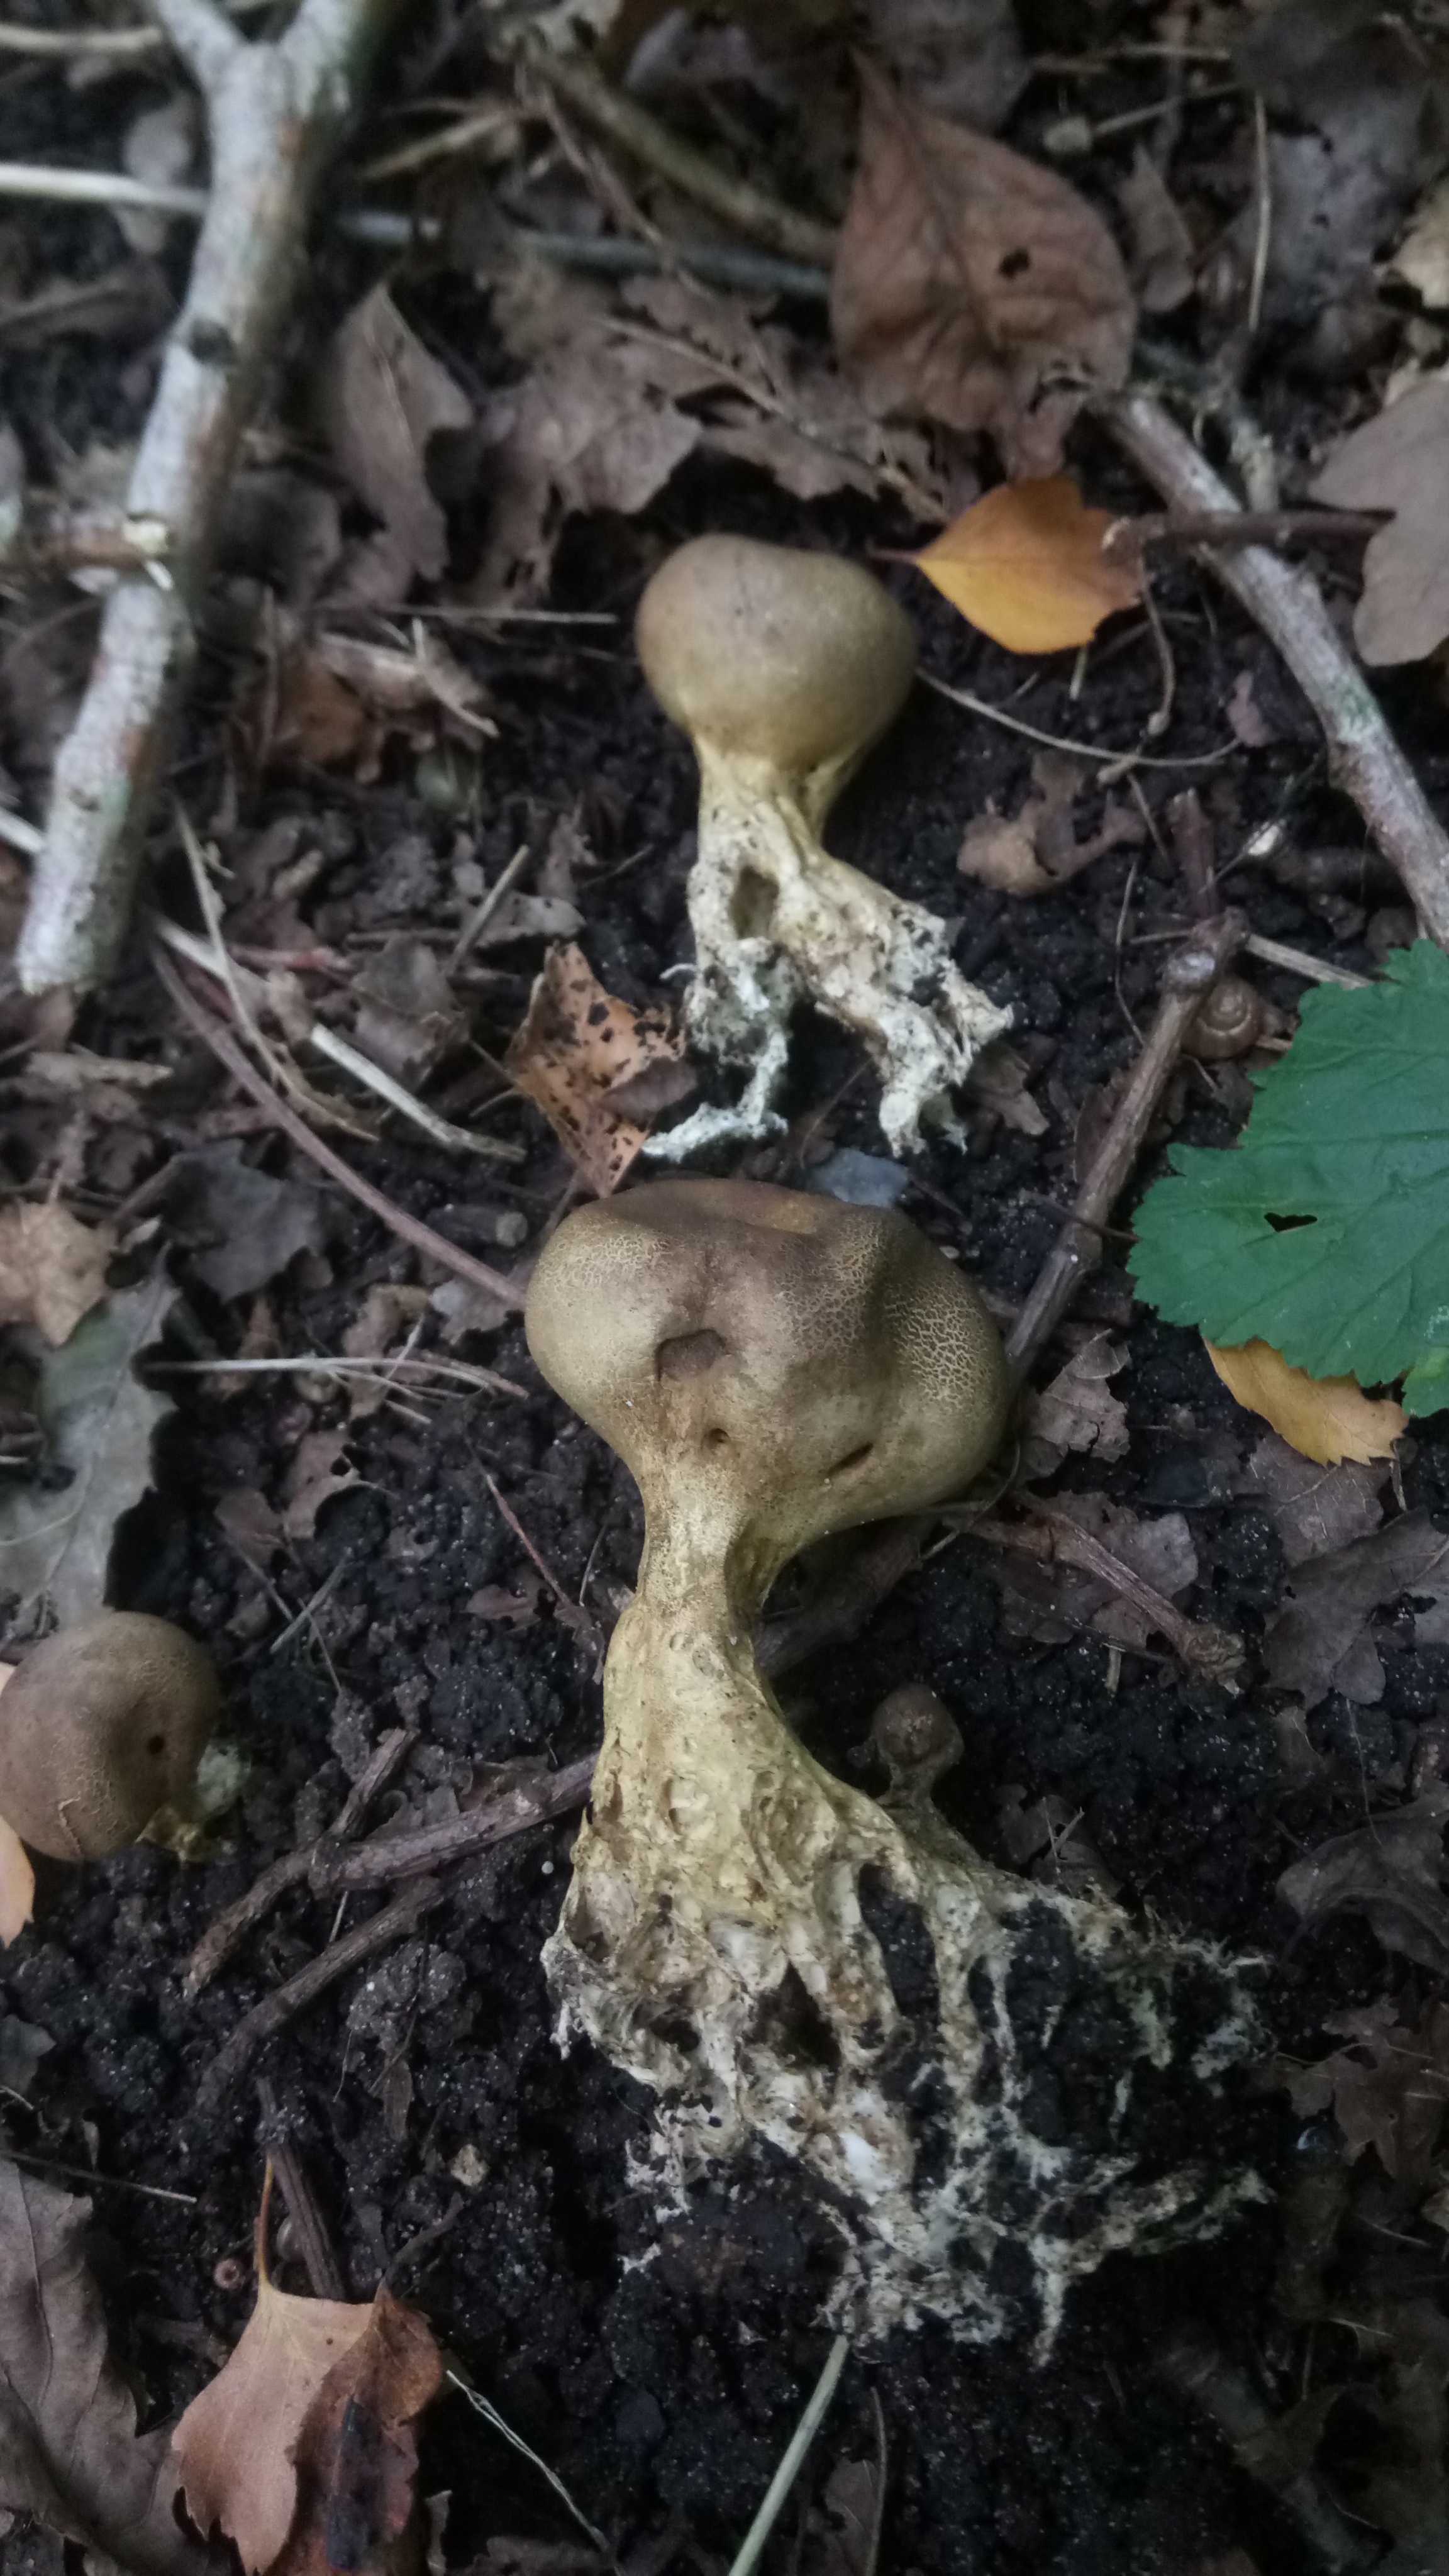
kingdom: Fungi
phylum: Basidiomycota
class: Agaricomycetes
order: Boletales
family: Sclerodermataceae
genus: Scleroderma
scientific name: Scleroderma verrucosum
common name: stilket bruskbold
